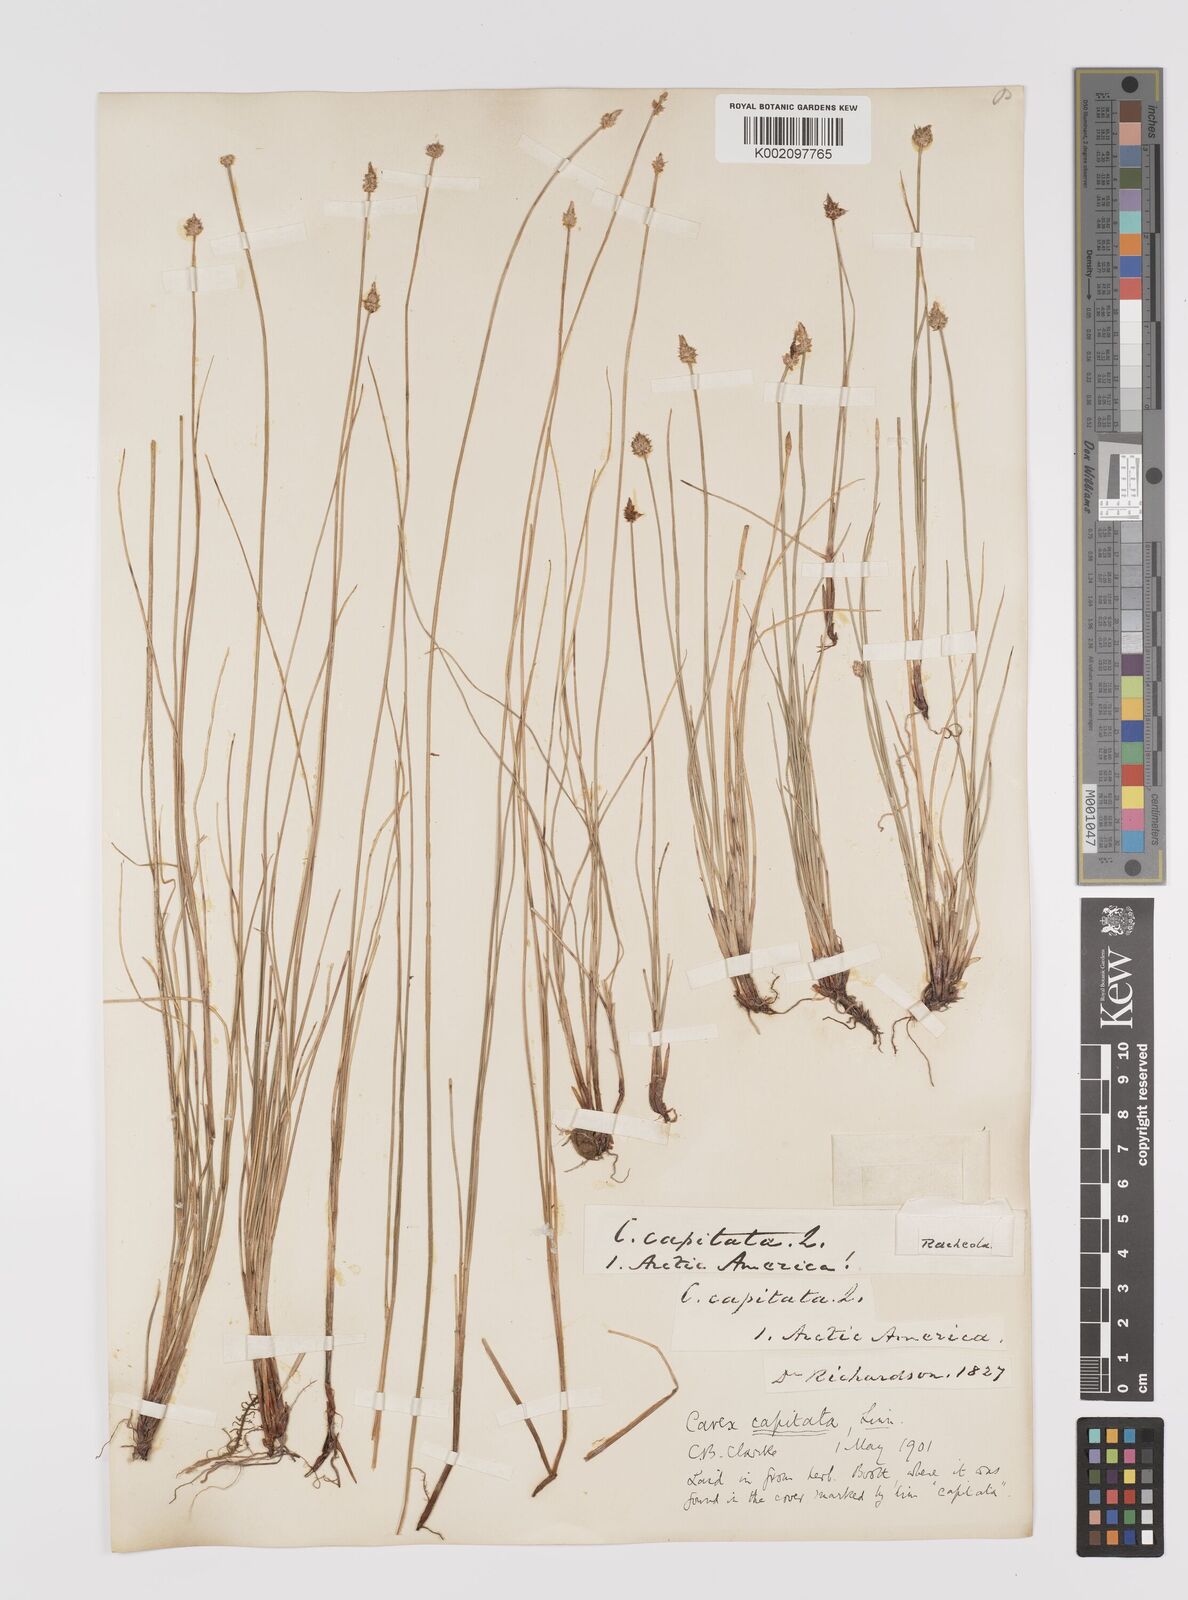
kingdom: Plantae
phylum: Tracheophyta
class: Liliopsida
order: Poales
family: Cyperaceae
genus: Carex
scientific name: Carex capitata
